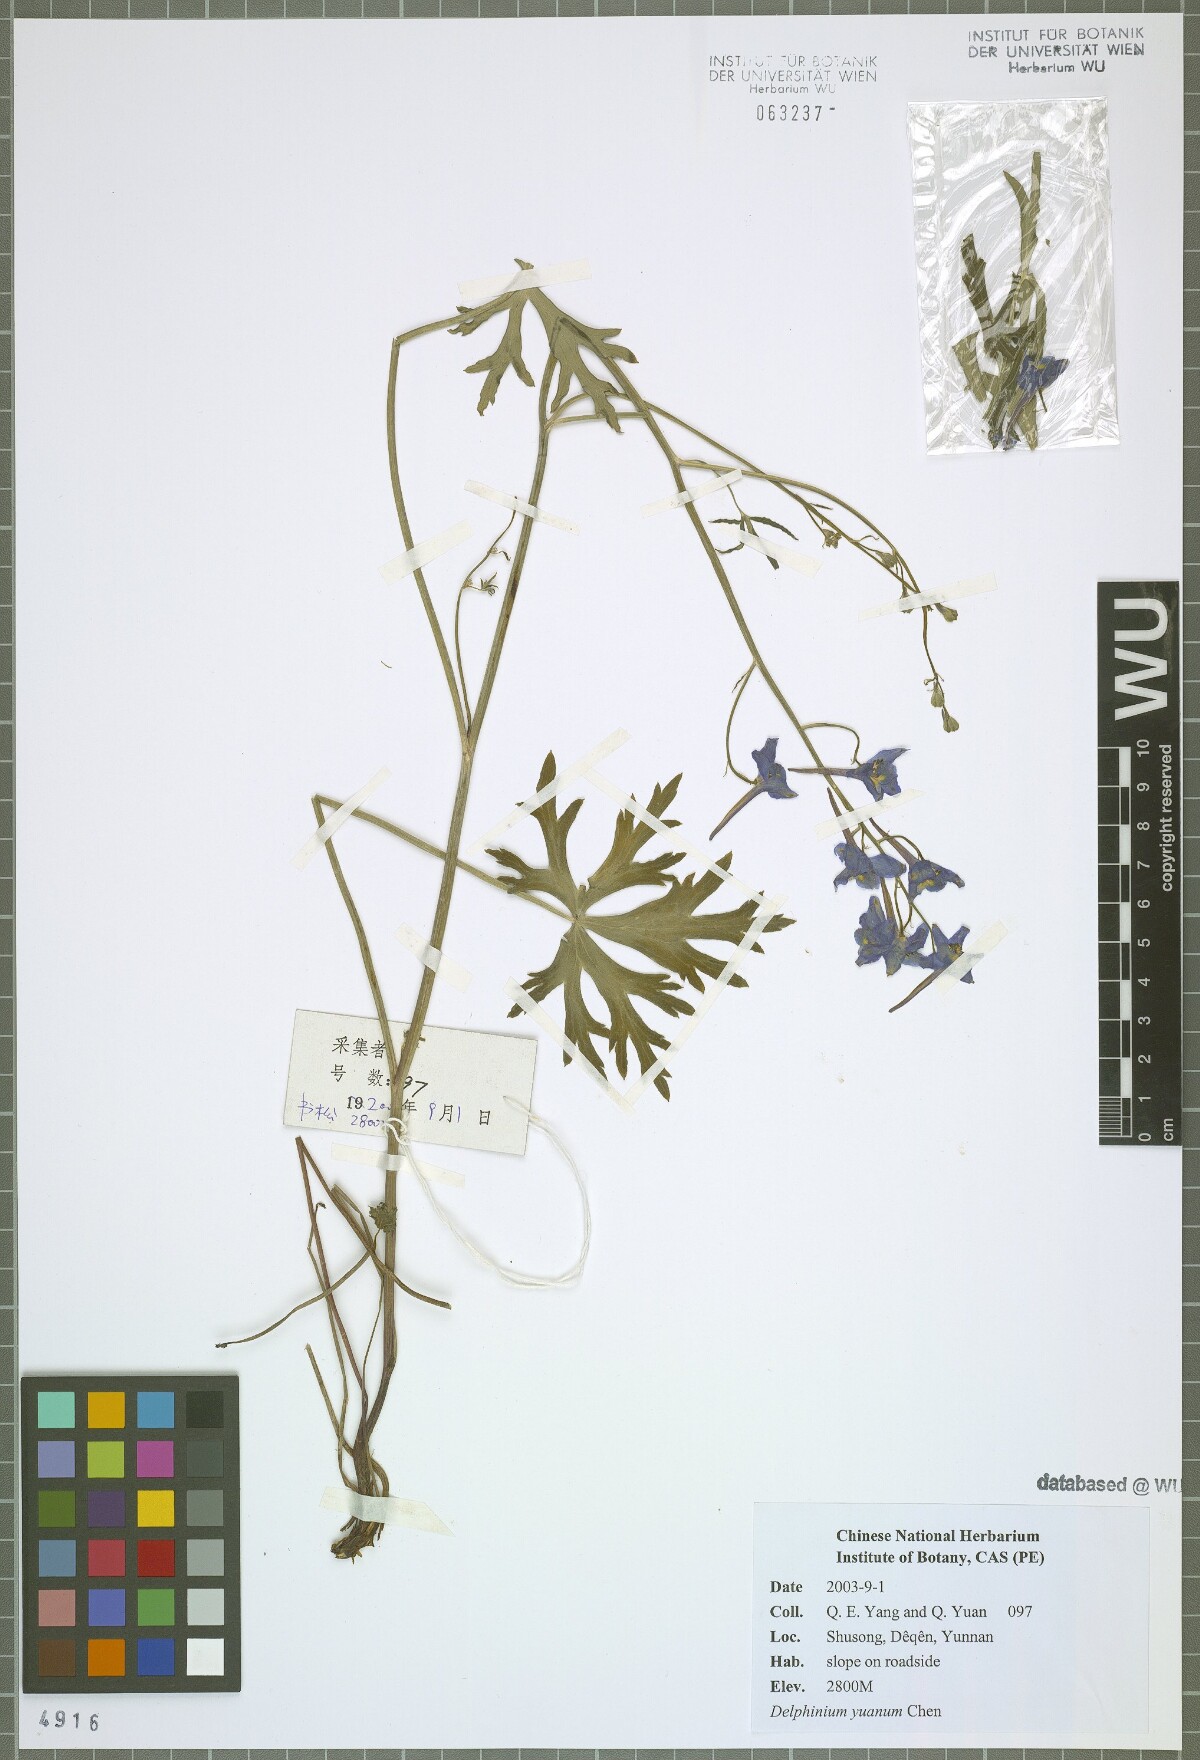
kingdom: Plantae
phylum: Tracheophyta
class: Magnoliopsida
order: Ranunculales
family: Ranunculaceae
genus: Delphinium
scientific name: Delphinium yuanum
